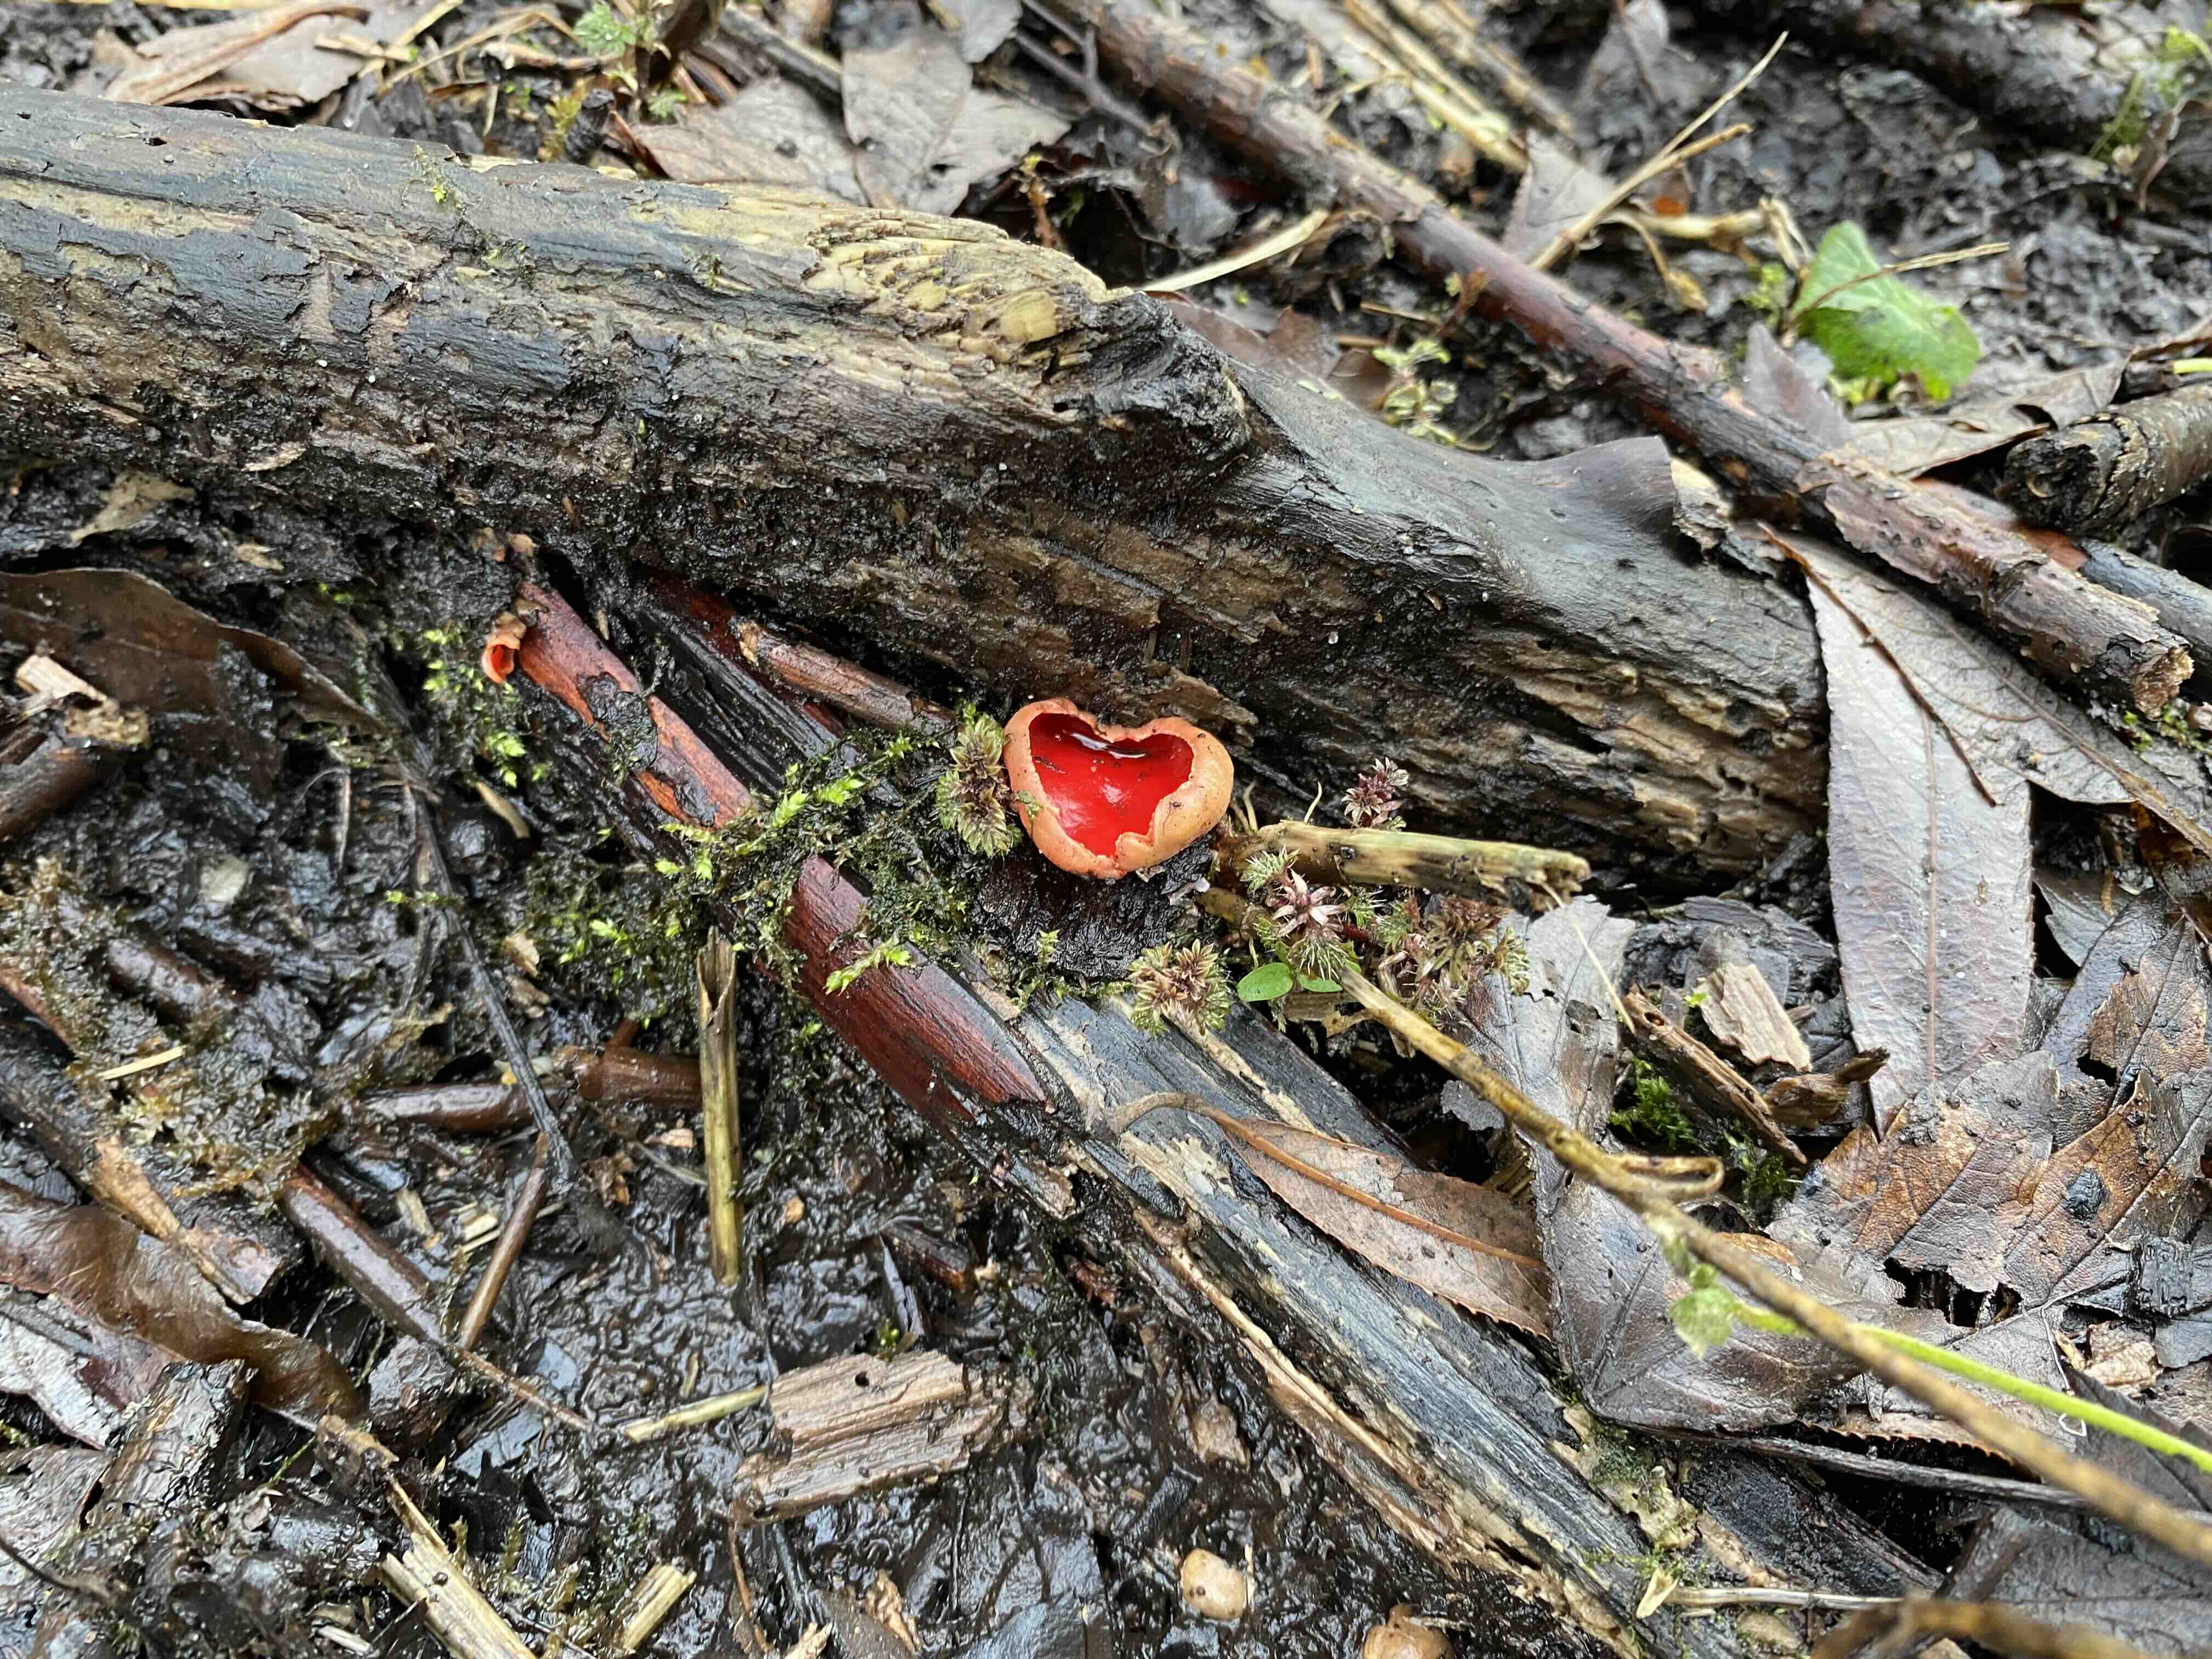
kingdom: Fungi
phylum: Ascomycota
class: Pezizomycetes
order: Pezizales
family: Sarcoscyphaceae
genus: Sarcoscypha
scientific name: Sarcoscypha austriaca
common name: krølhåret pragtbæger
